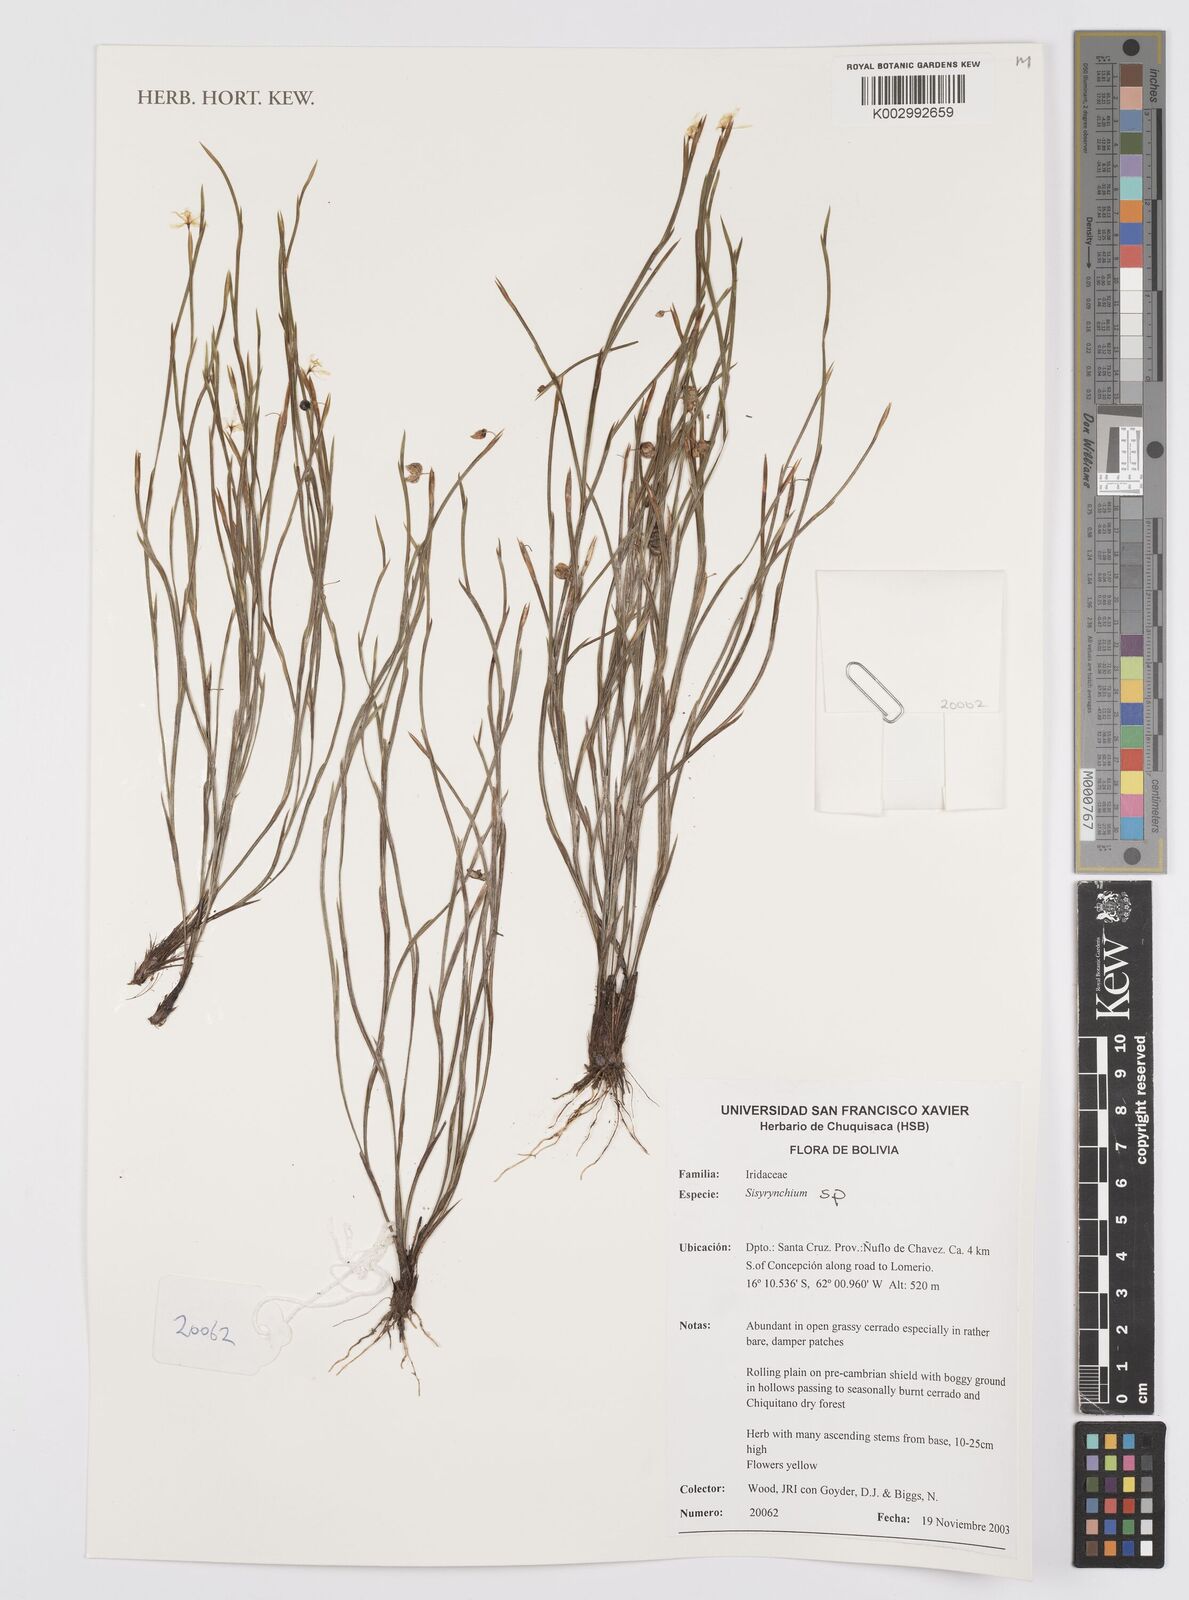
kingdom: Plantae
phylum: Tracheophyta
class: Liliopsida
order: Asparagales
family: Iridaceae
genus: Sisyrinchium
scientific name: Sisyrinchium
